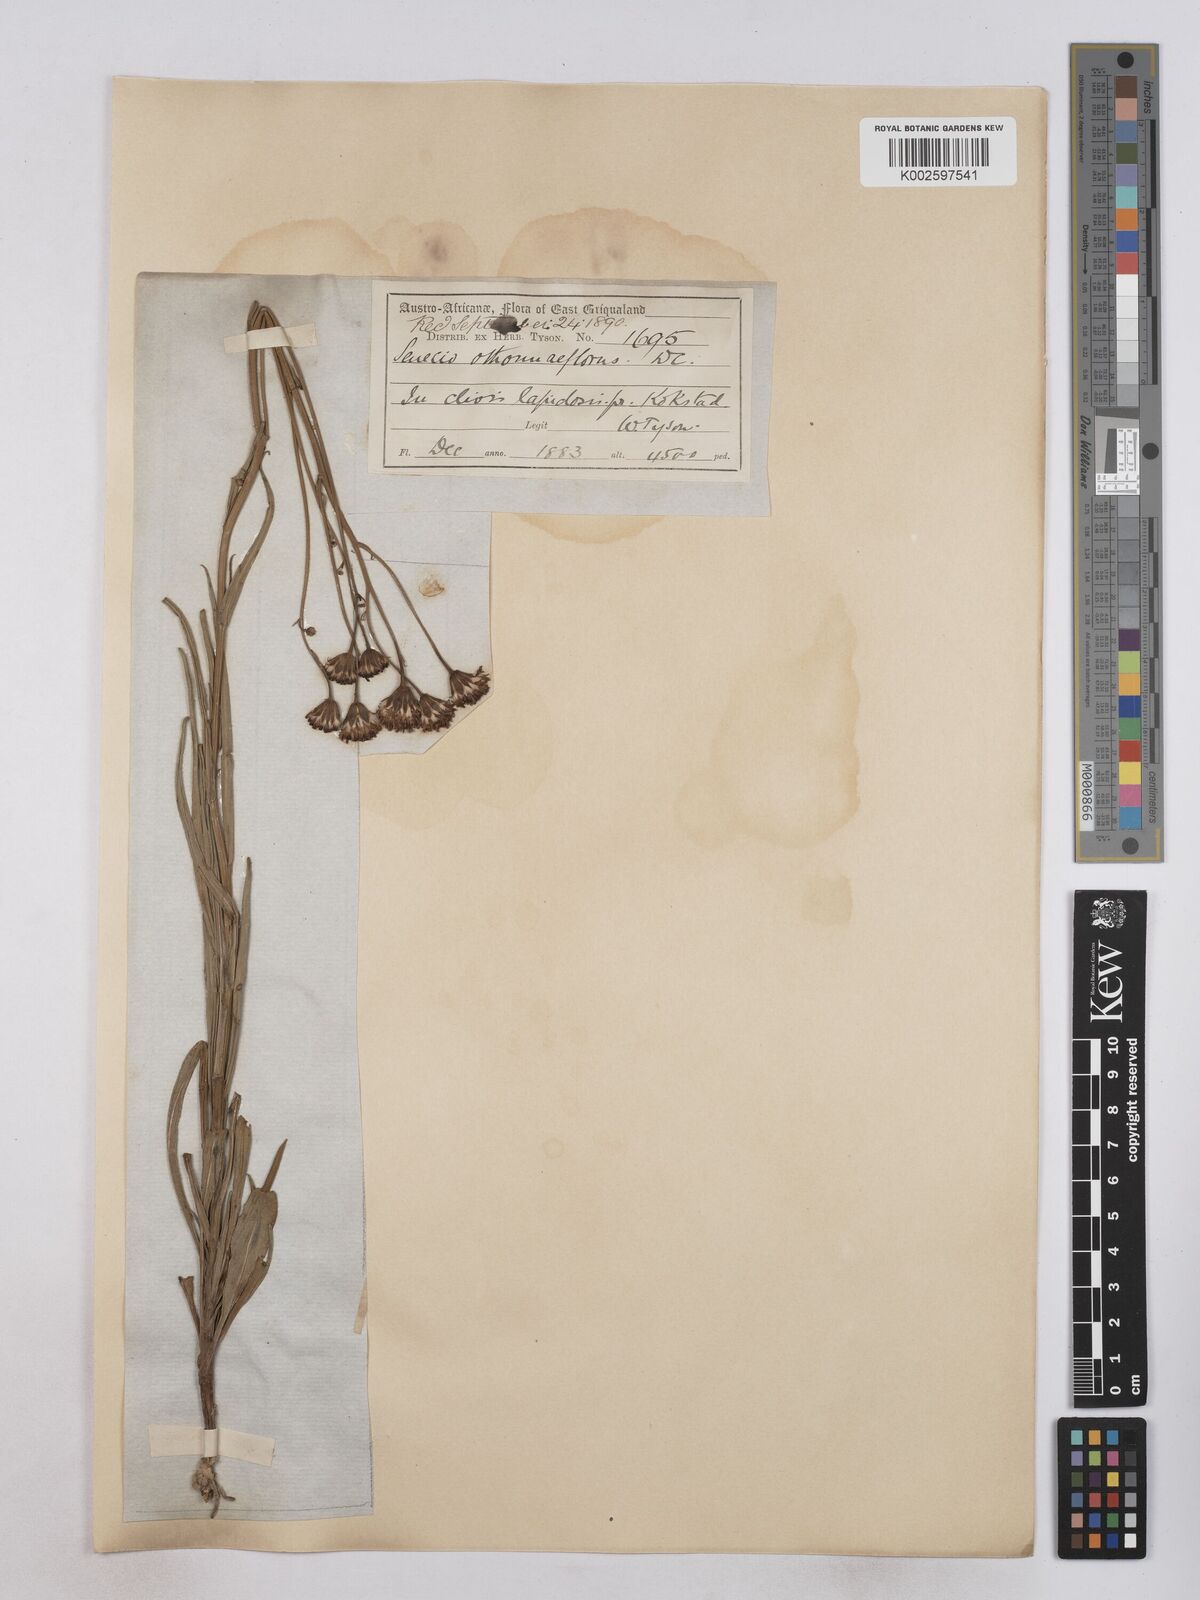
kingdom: Plantae
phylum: Tracheophyta
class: Magnoliopsida
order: Asterales
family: Asteraceae
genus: Senecio
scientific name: Senecio othonniflorus
